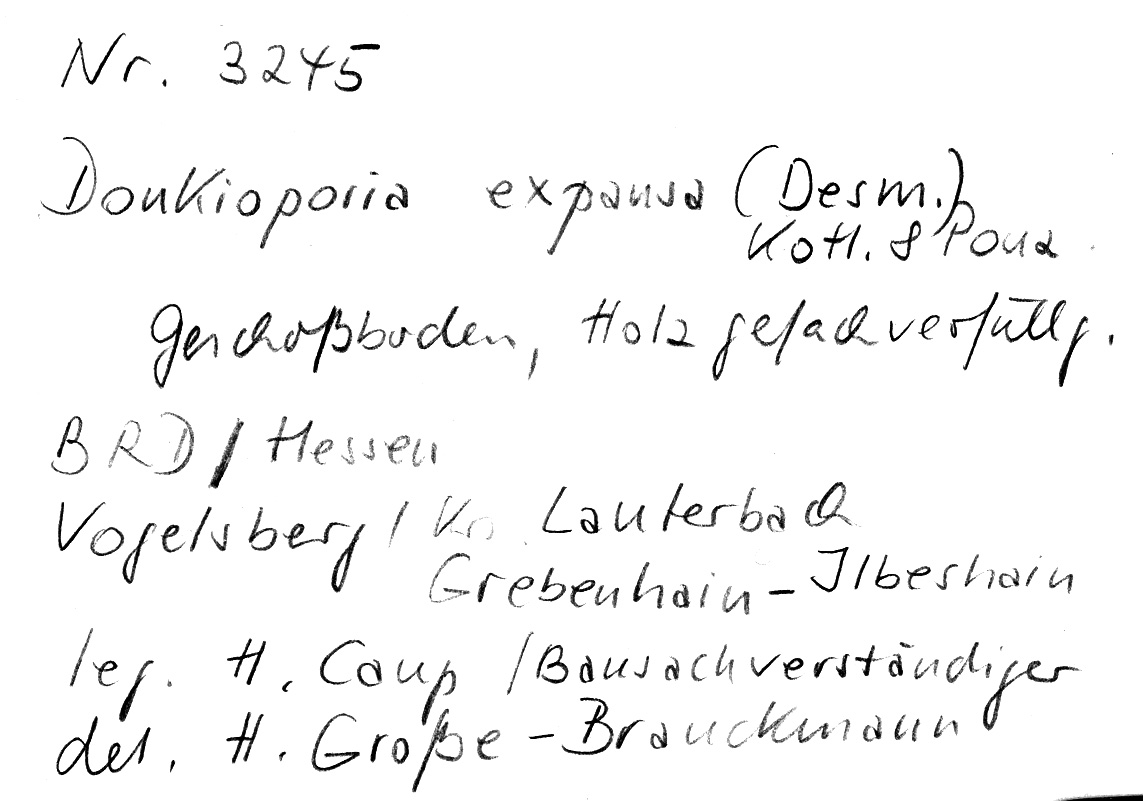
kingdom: Fungi
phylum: Basidiomycota
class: Agaricomycetes
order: Polyporales
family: Polyporaceae
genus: Donkioporia
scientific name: Donkioporia expansa
